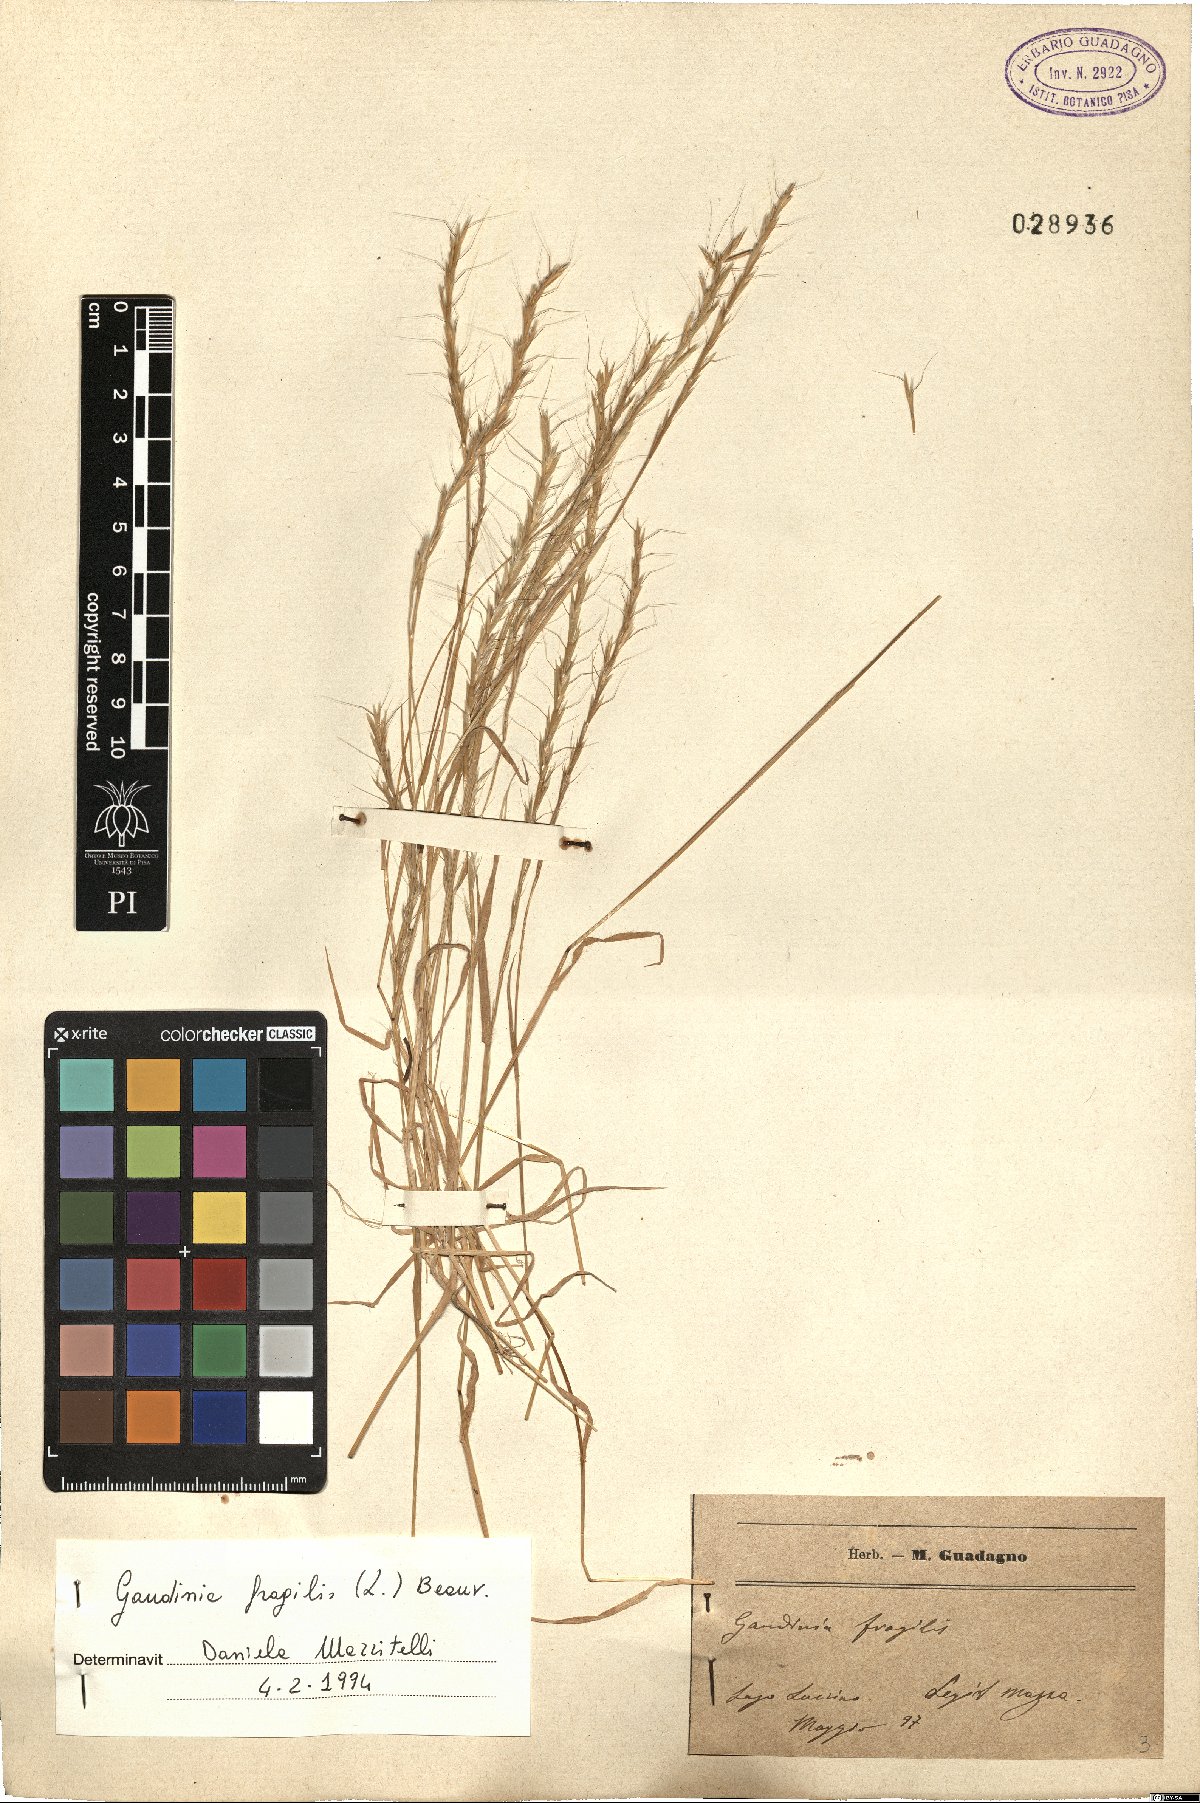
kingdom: Plantae
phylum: Tracheophyta
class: Liliopsida
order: Poales
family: Poaceae
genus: Gaudinia
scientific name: Gaudinia fragilis
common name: French oat-grass
